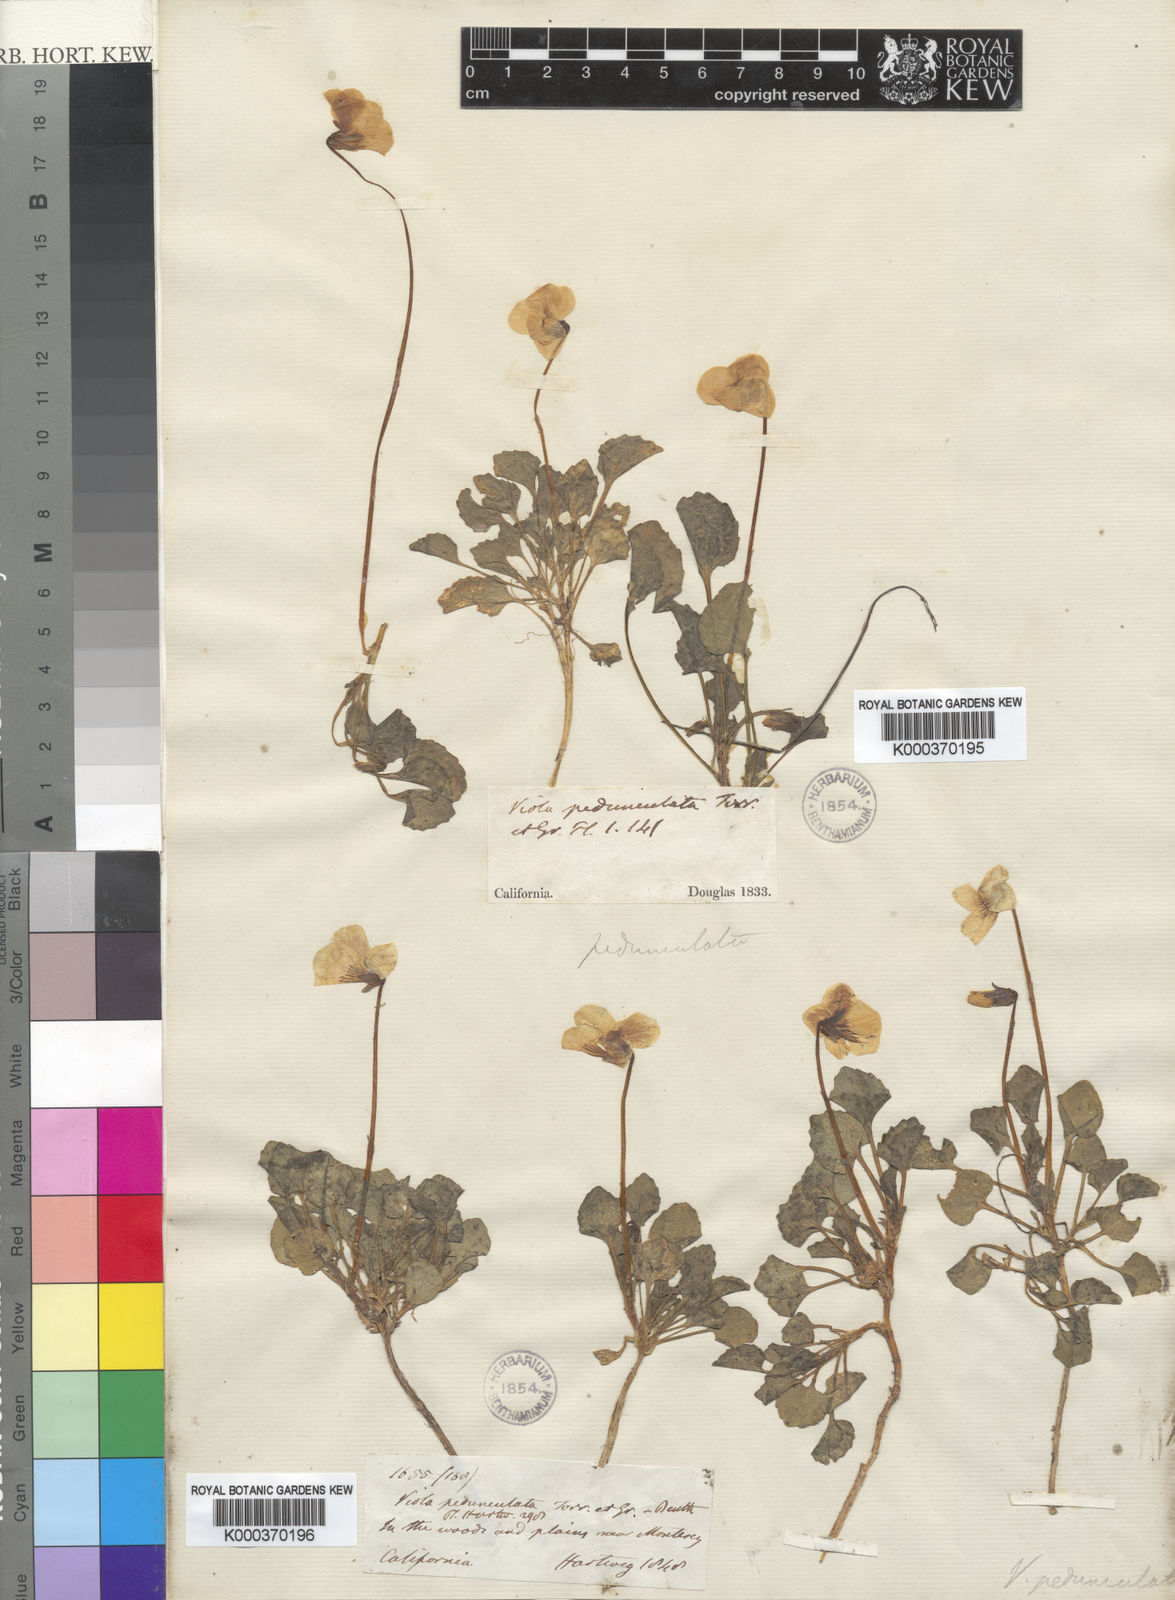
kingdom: Plantae
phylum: Tracheophyta
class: Magnoliopsida
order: Malpighiales
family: Violaceae
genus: Viola
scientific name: Viola pedunculata
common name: California golden violet
